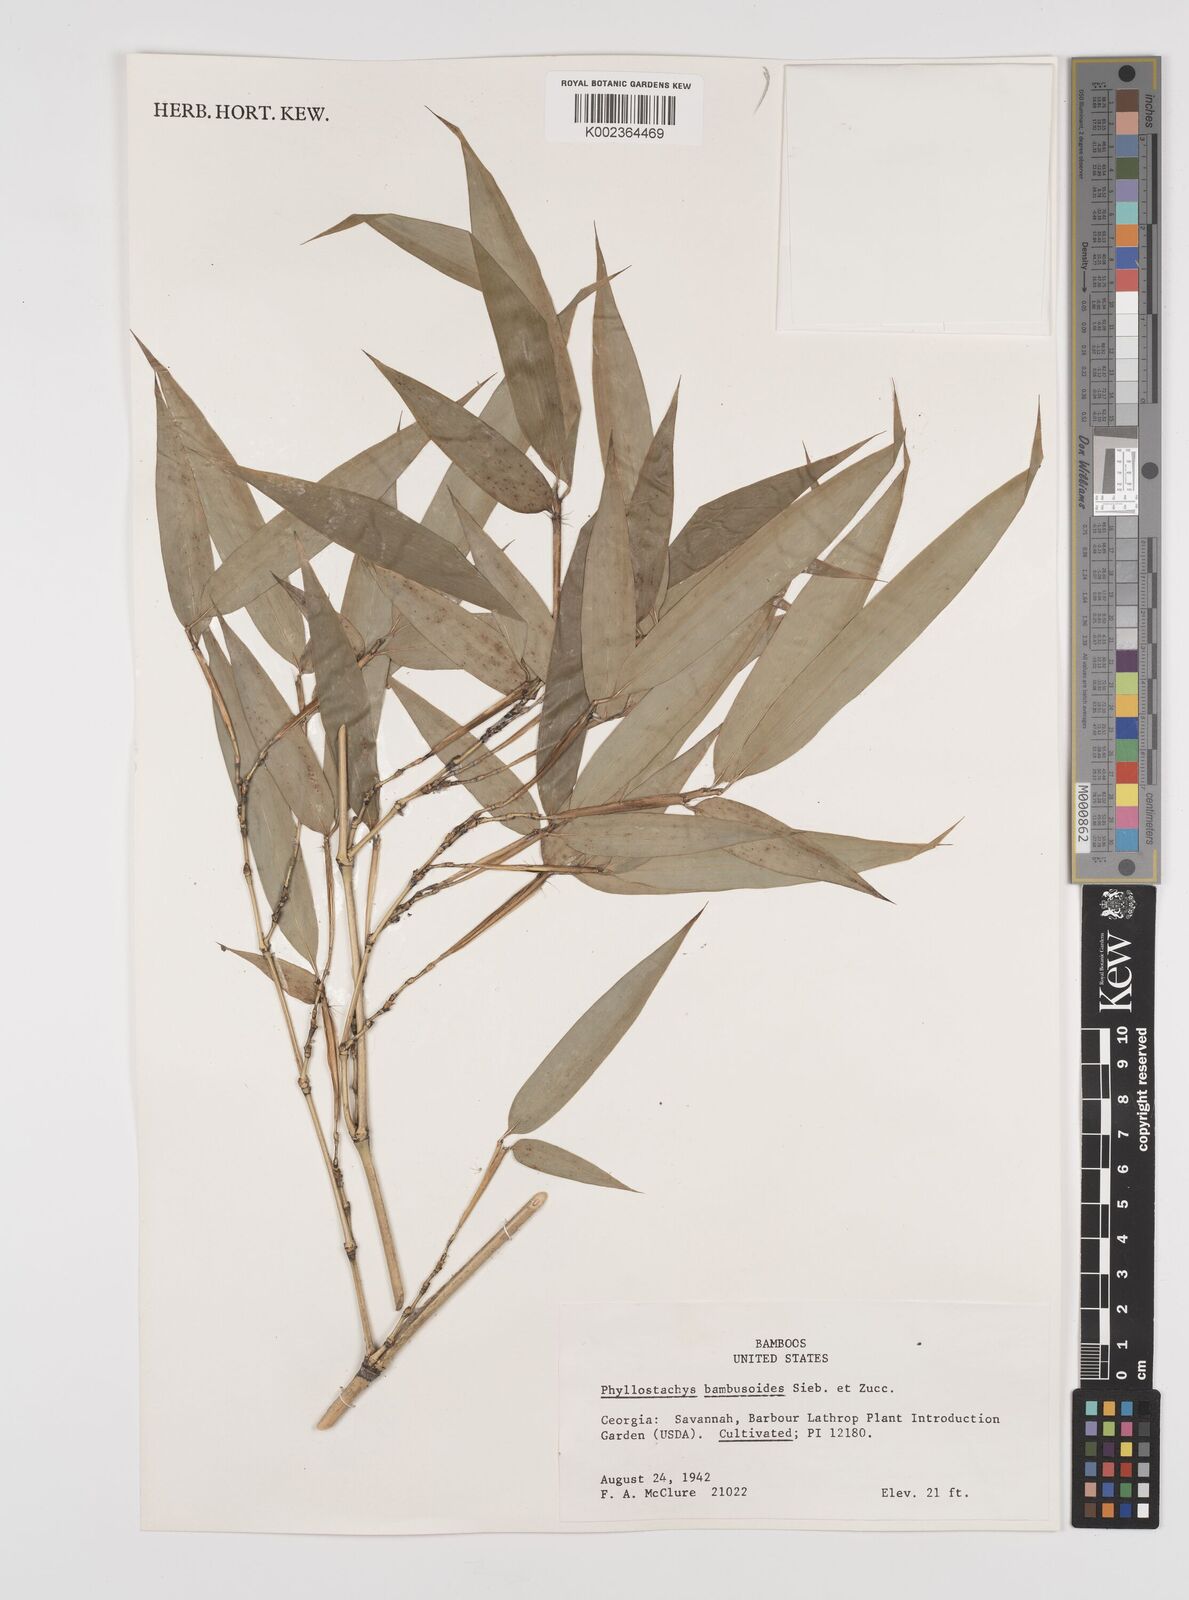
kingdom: Plantae
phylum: Tracheophyta
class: Liliopsida
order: Poales
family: Poaceae
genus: Phyllostachys
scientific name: Phyllostachys reticulata
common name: Bamboo
